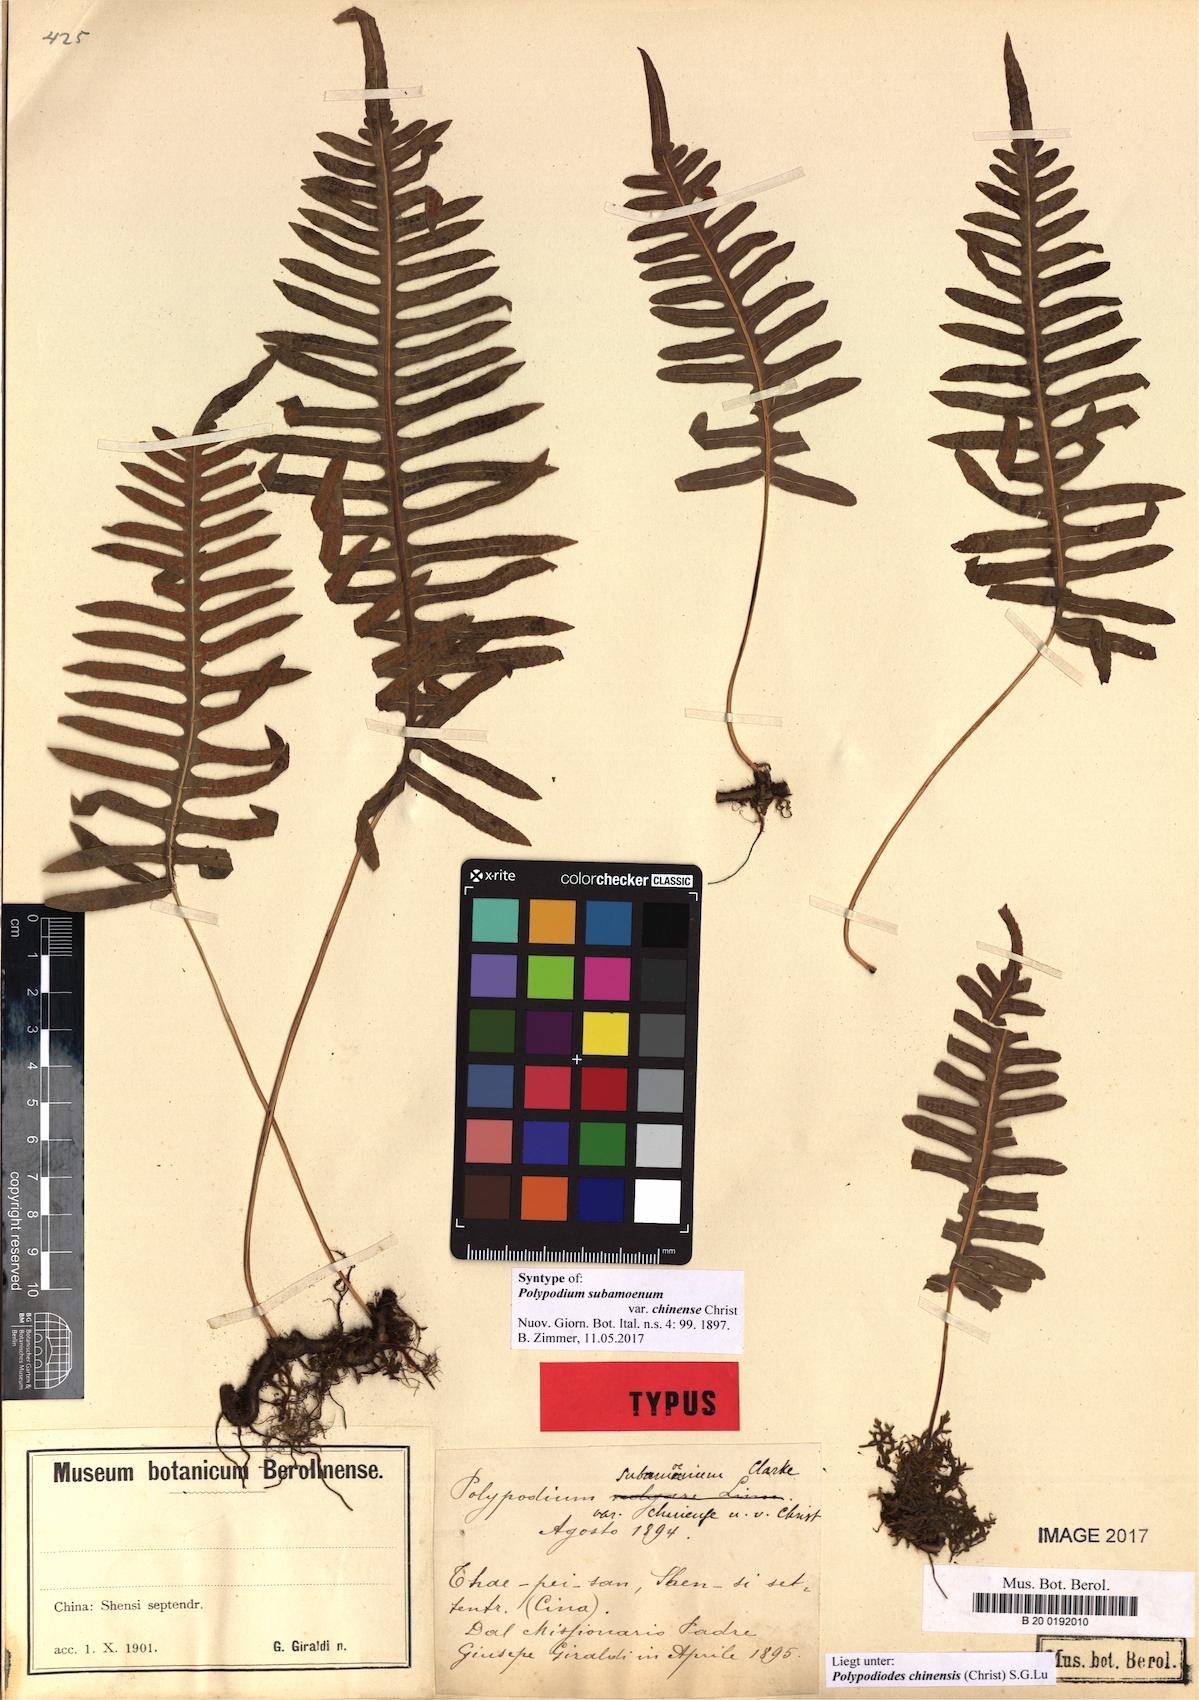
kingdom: Plantae
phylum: Tracheophyta
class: Polypodiopsida
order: Polypodiales
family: Polypodiaceae
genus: Goniophlebium
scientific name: Goniophlebium yunnanense
